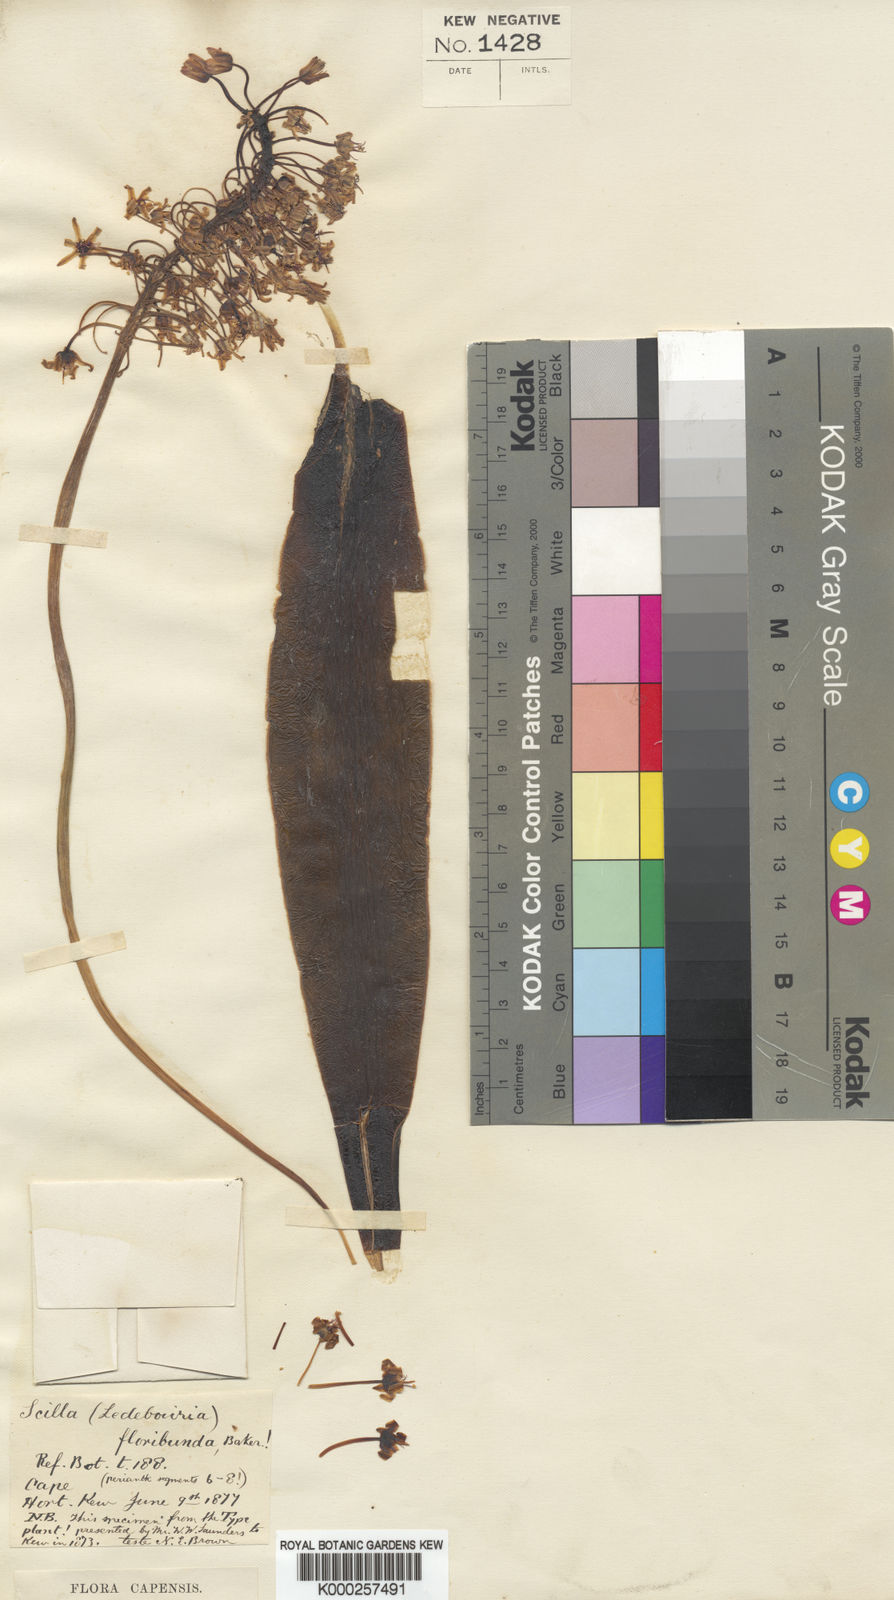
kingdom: Plantae
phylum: Tracheophyta
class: Liliopsida
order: Asparagales
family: Asparagaceae
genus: Ledebouria
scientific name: Ledebouria floribunda
